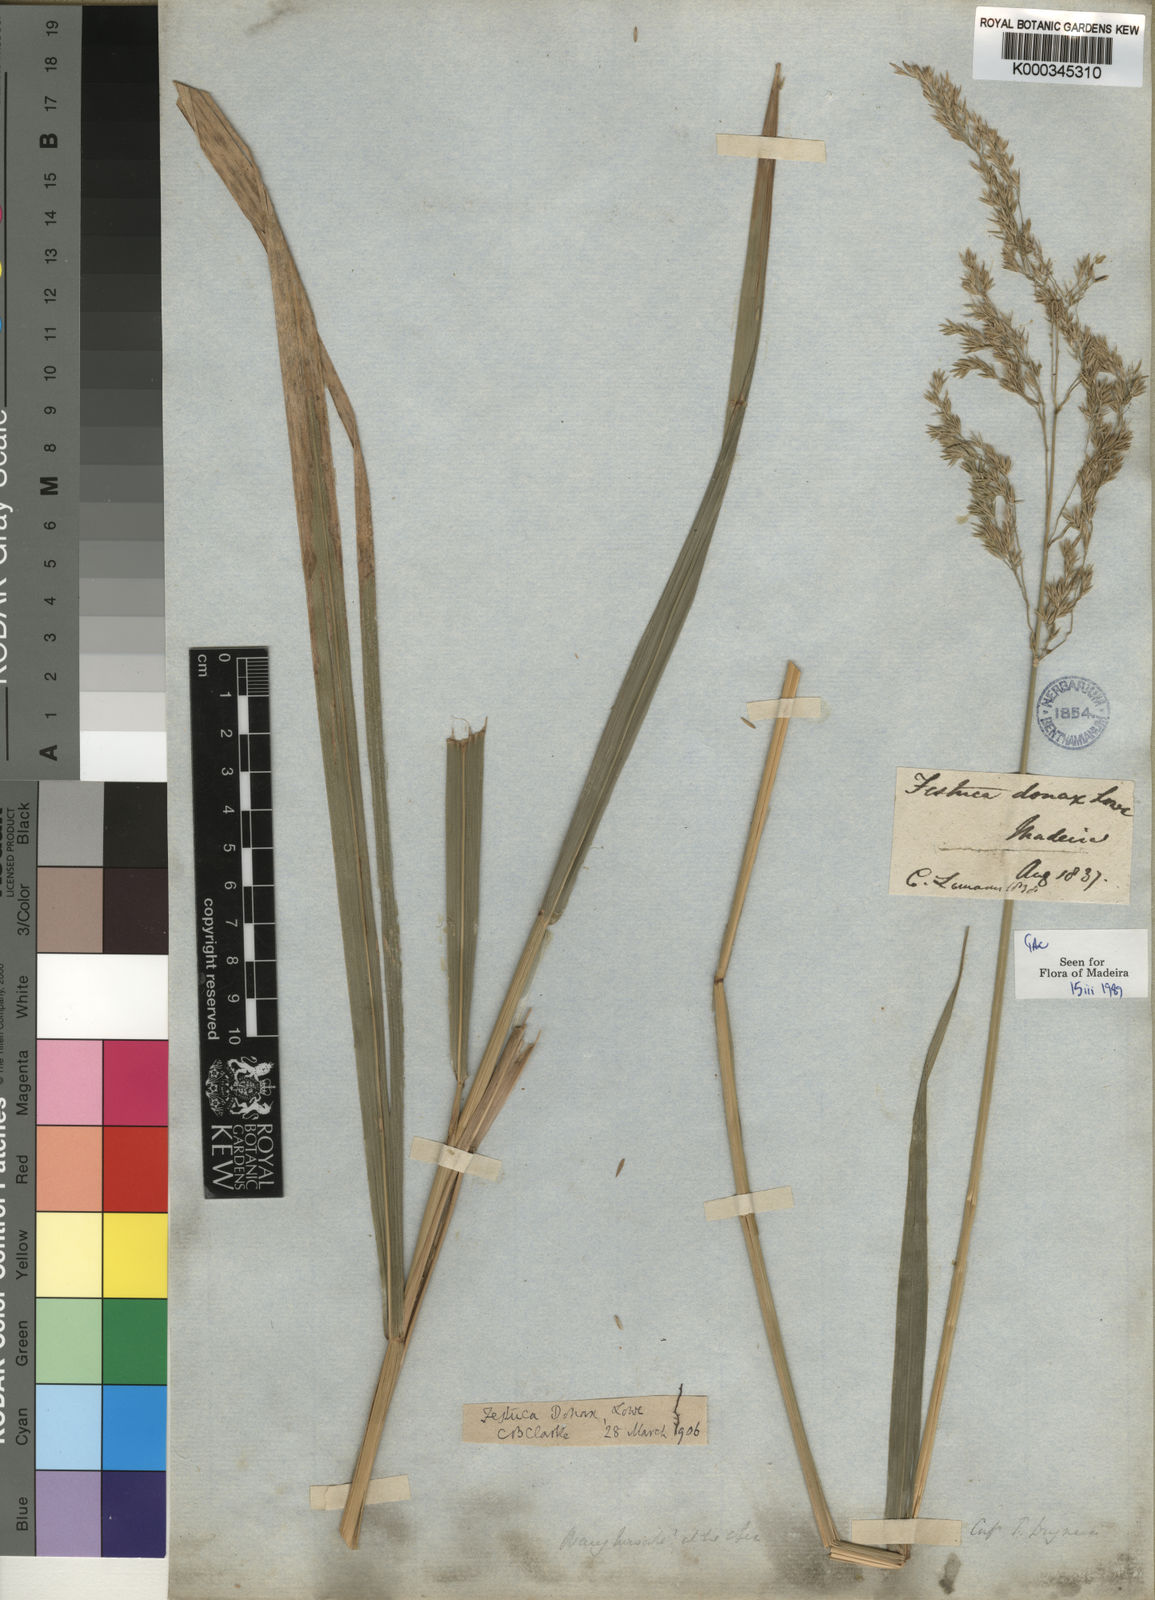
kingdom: Plantae
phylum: Tracheophyta
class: Liliopsida
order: Poales
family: Poaceae
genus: Festuca
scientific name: Festuca donax
